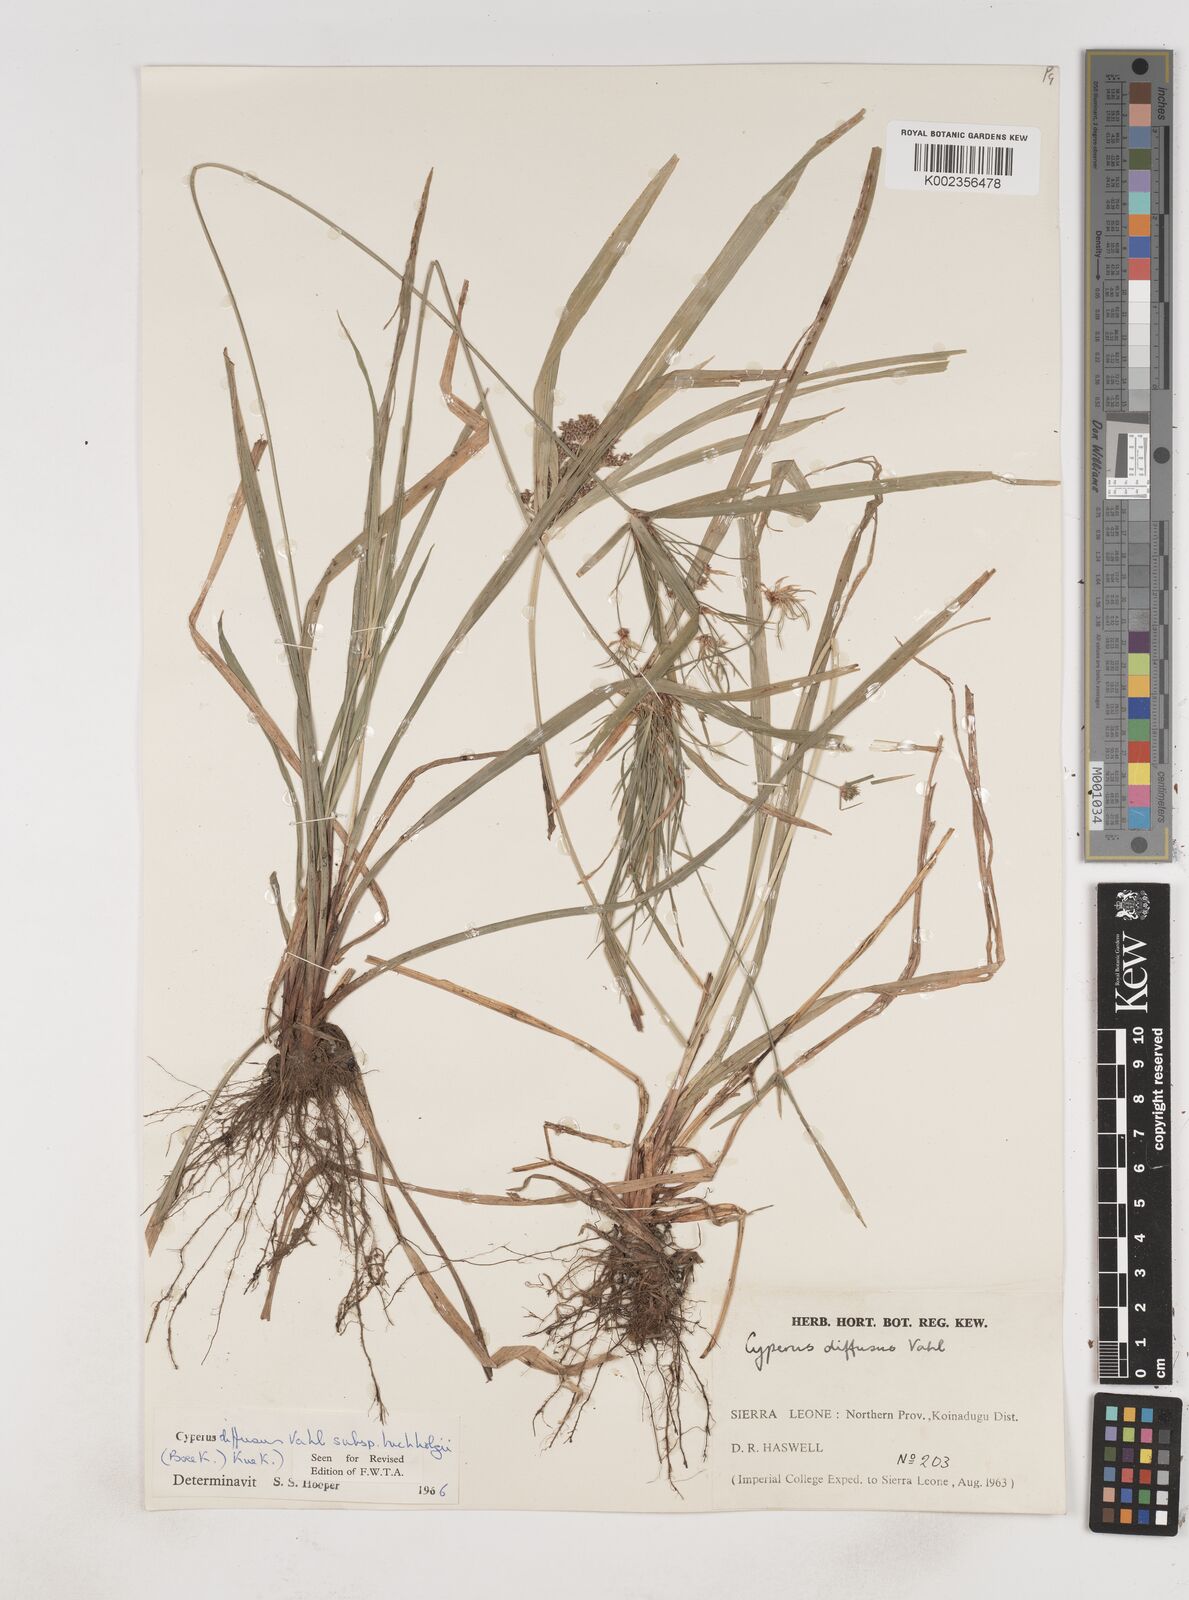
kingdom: Plantae
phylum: Tracheophyta
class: Liliopsida
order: Poales
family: Cyperaceae
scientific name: Cyperaceae
